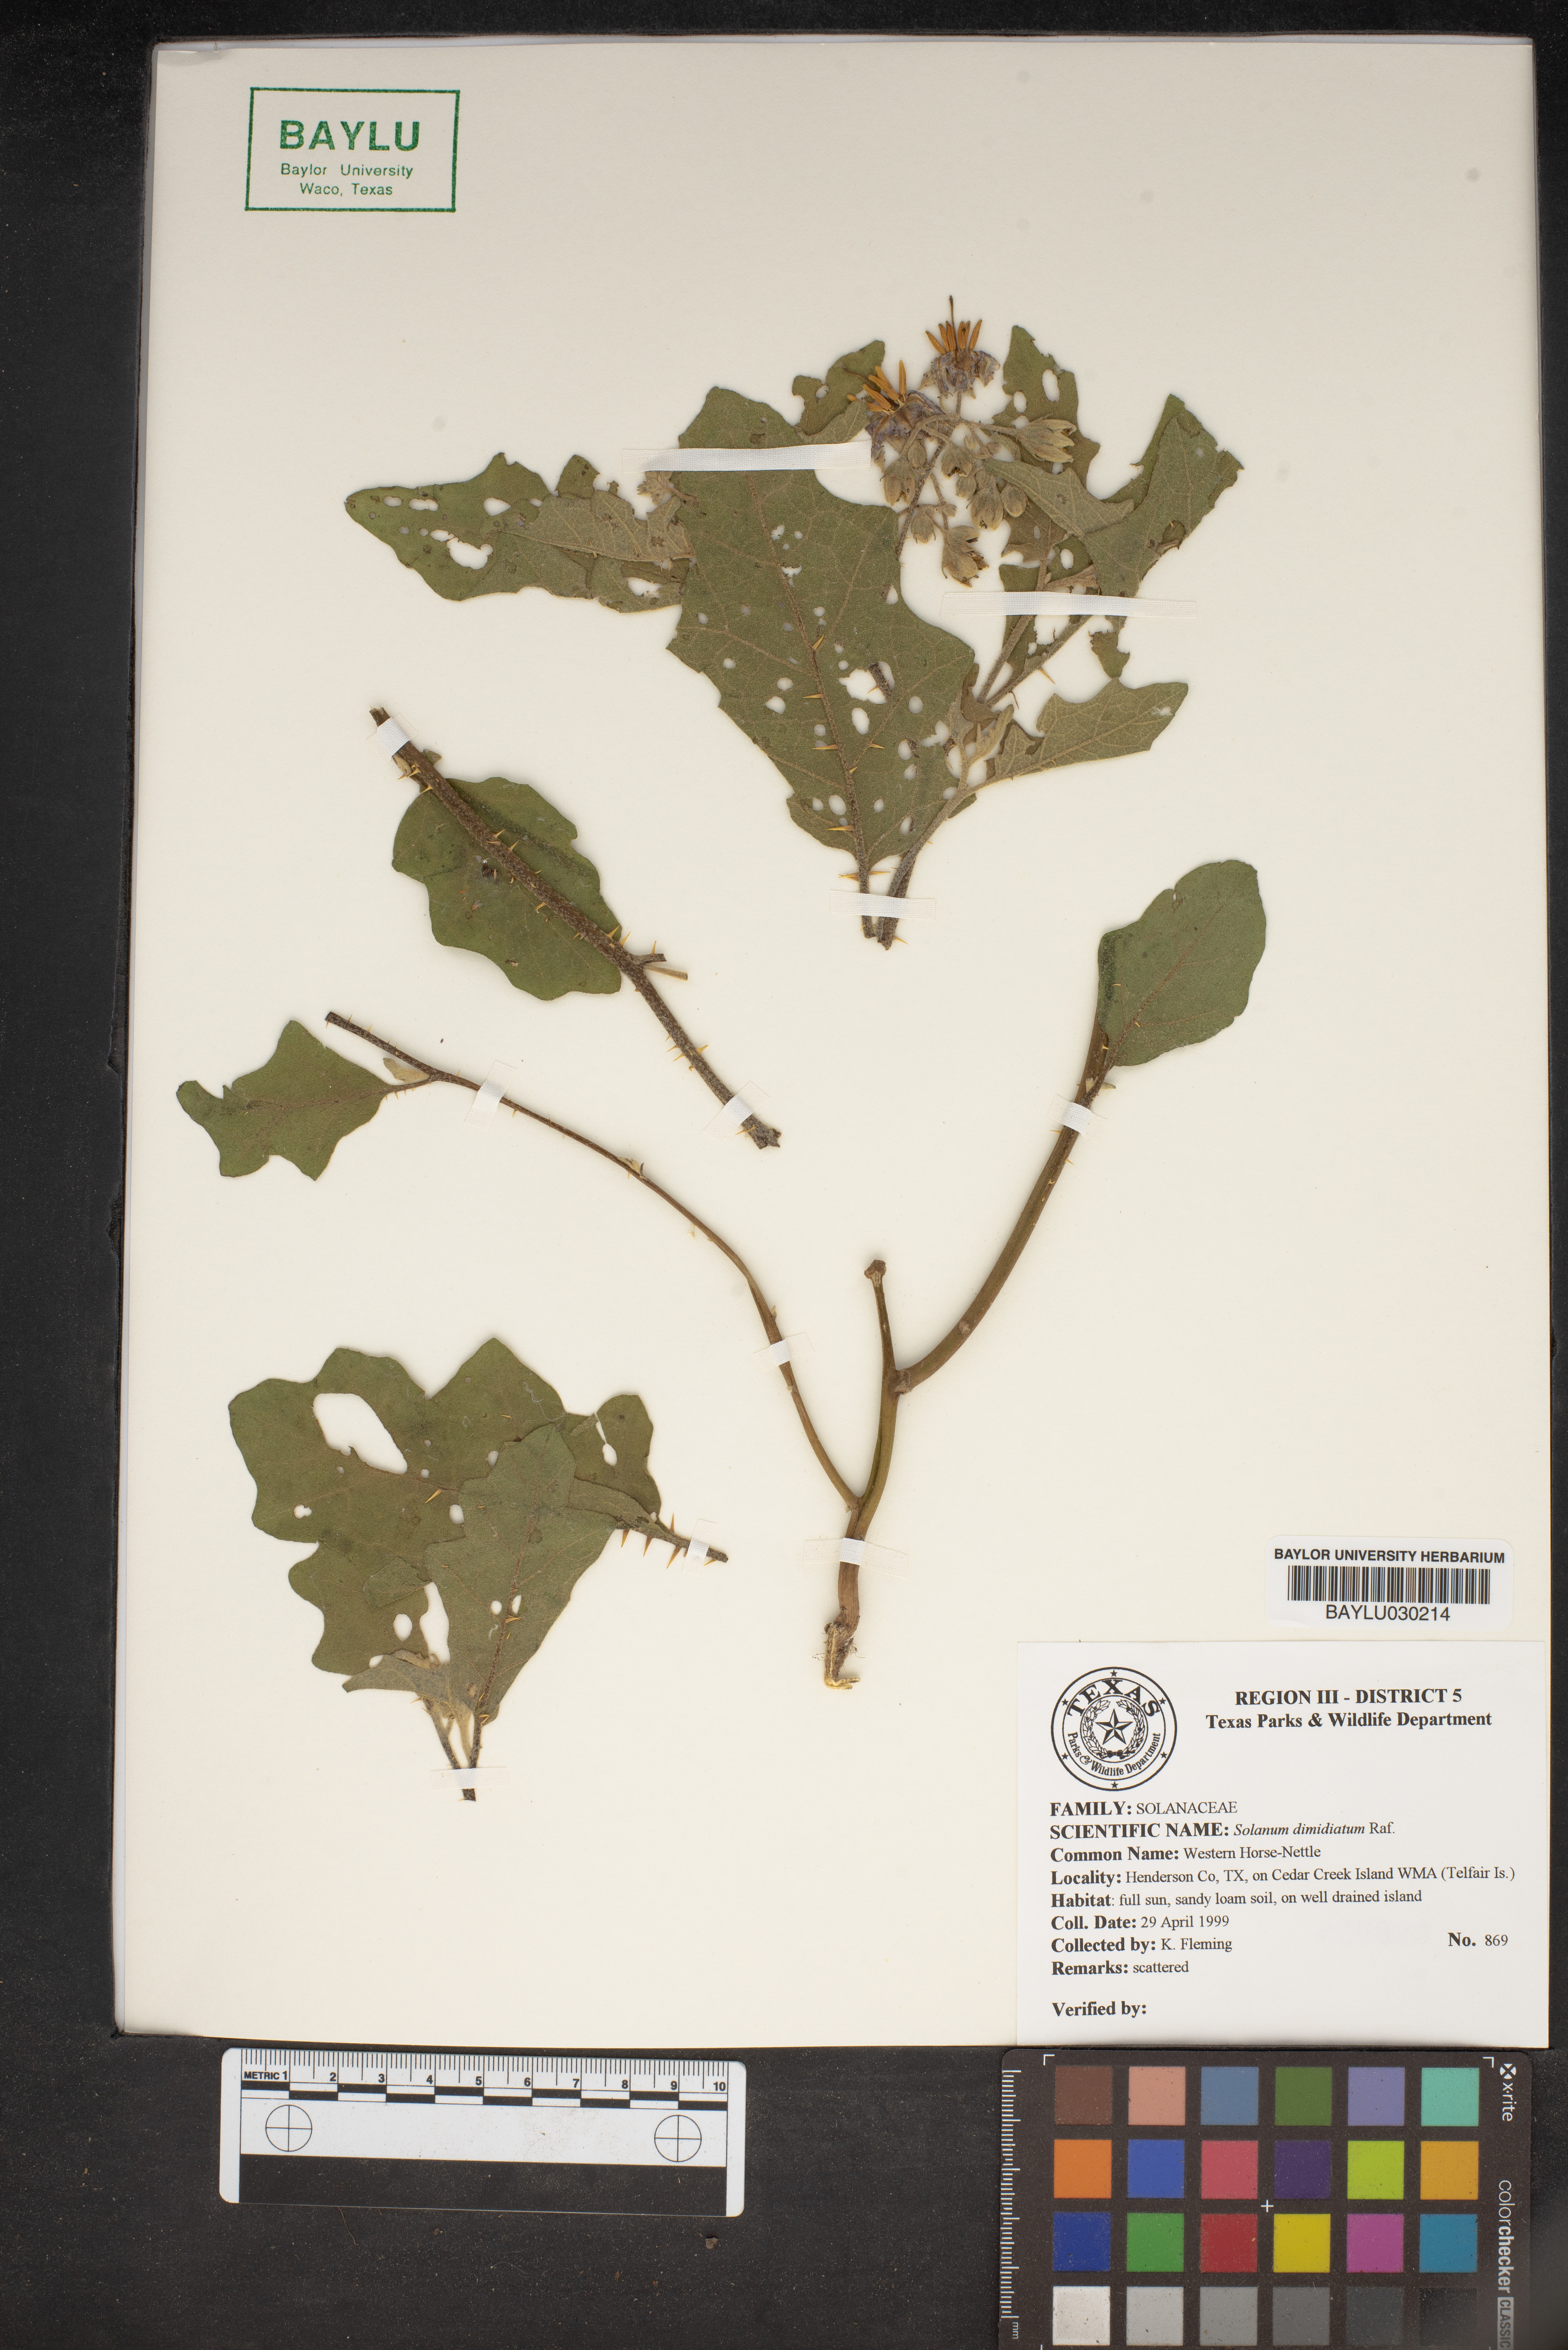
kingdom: Plantae
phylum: Tracheophyta
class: Magnoliopsida
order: Solanales
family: Solanaceae
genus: Solanum
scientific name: Solanum dimidiatum
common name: Carolina horse-nettle
